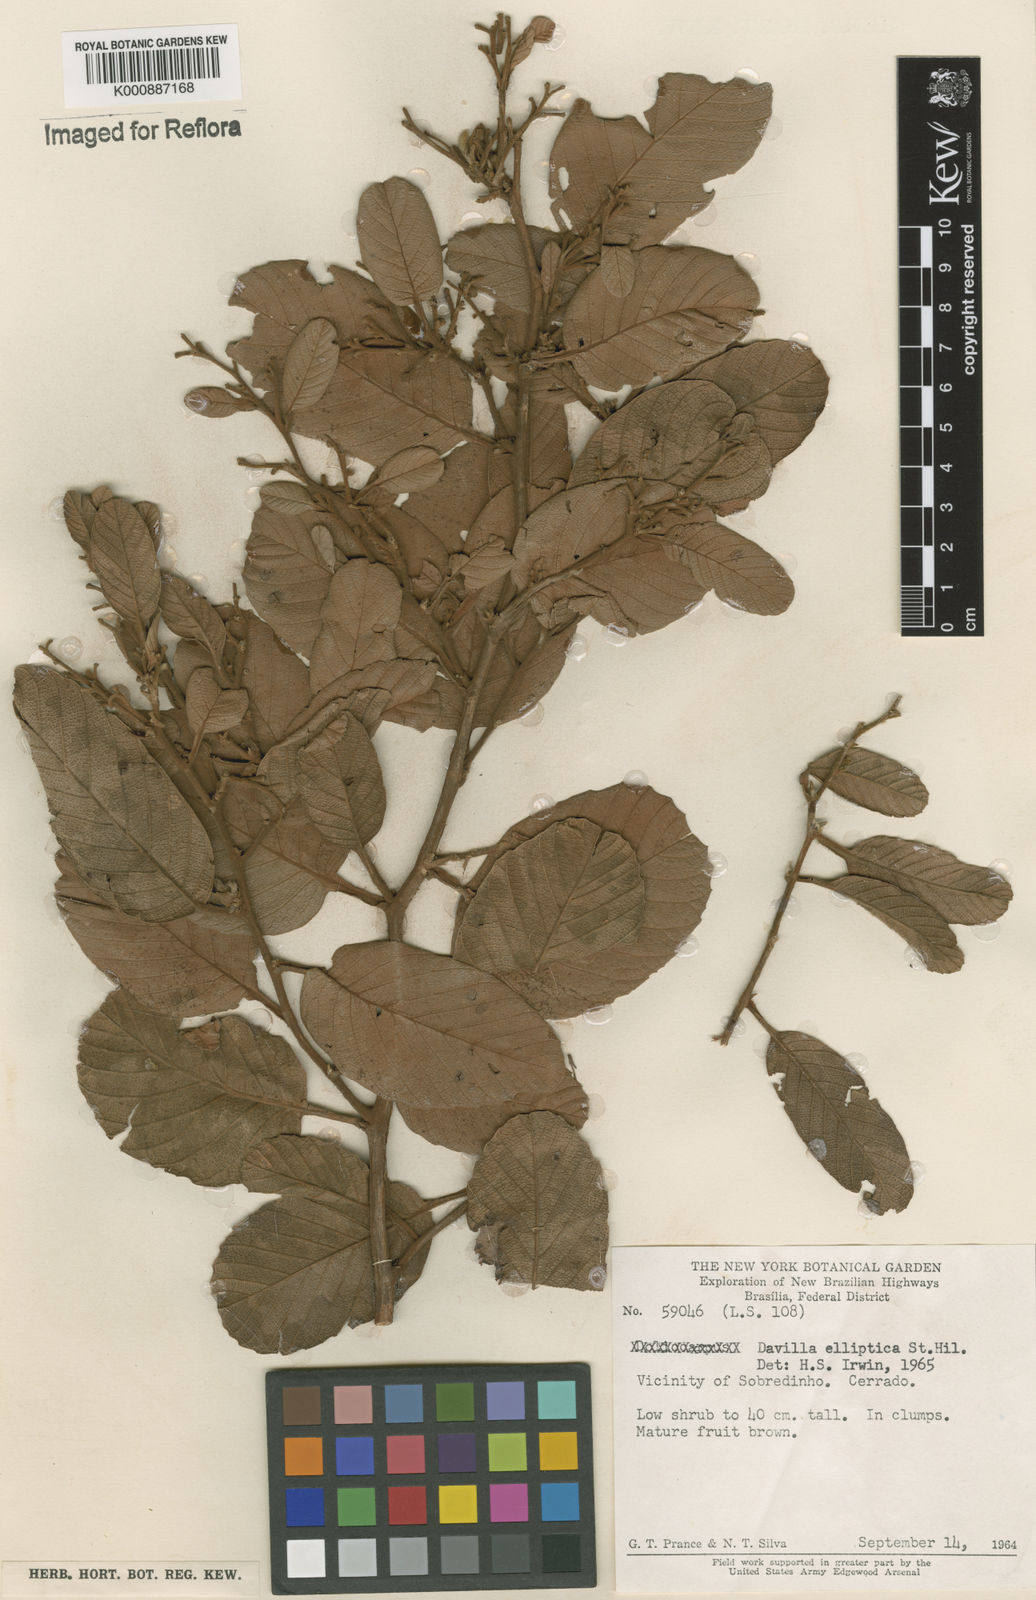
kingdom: Plantae
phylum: Tracheophyta
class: Magnoliopsida
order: Dilleniales
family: Dilleniaceae
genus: Davilla
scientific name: Davilla elliptica
